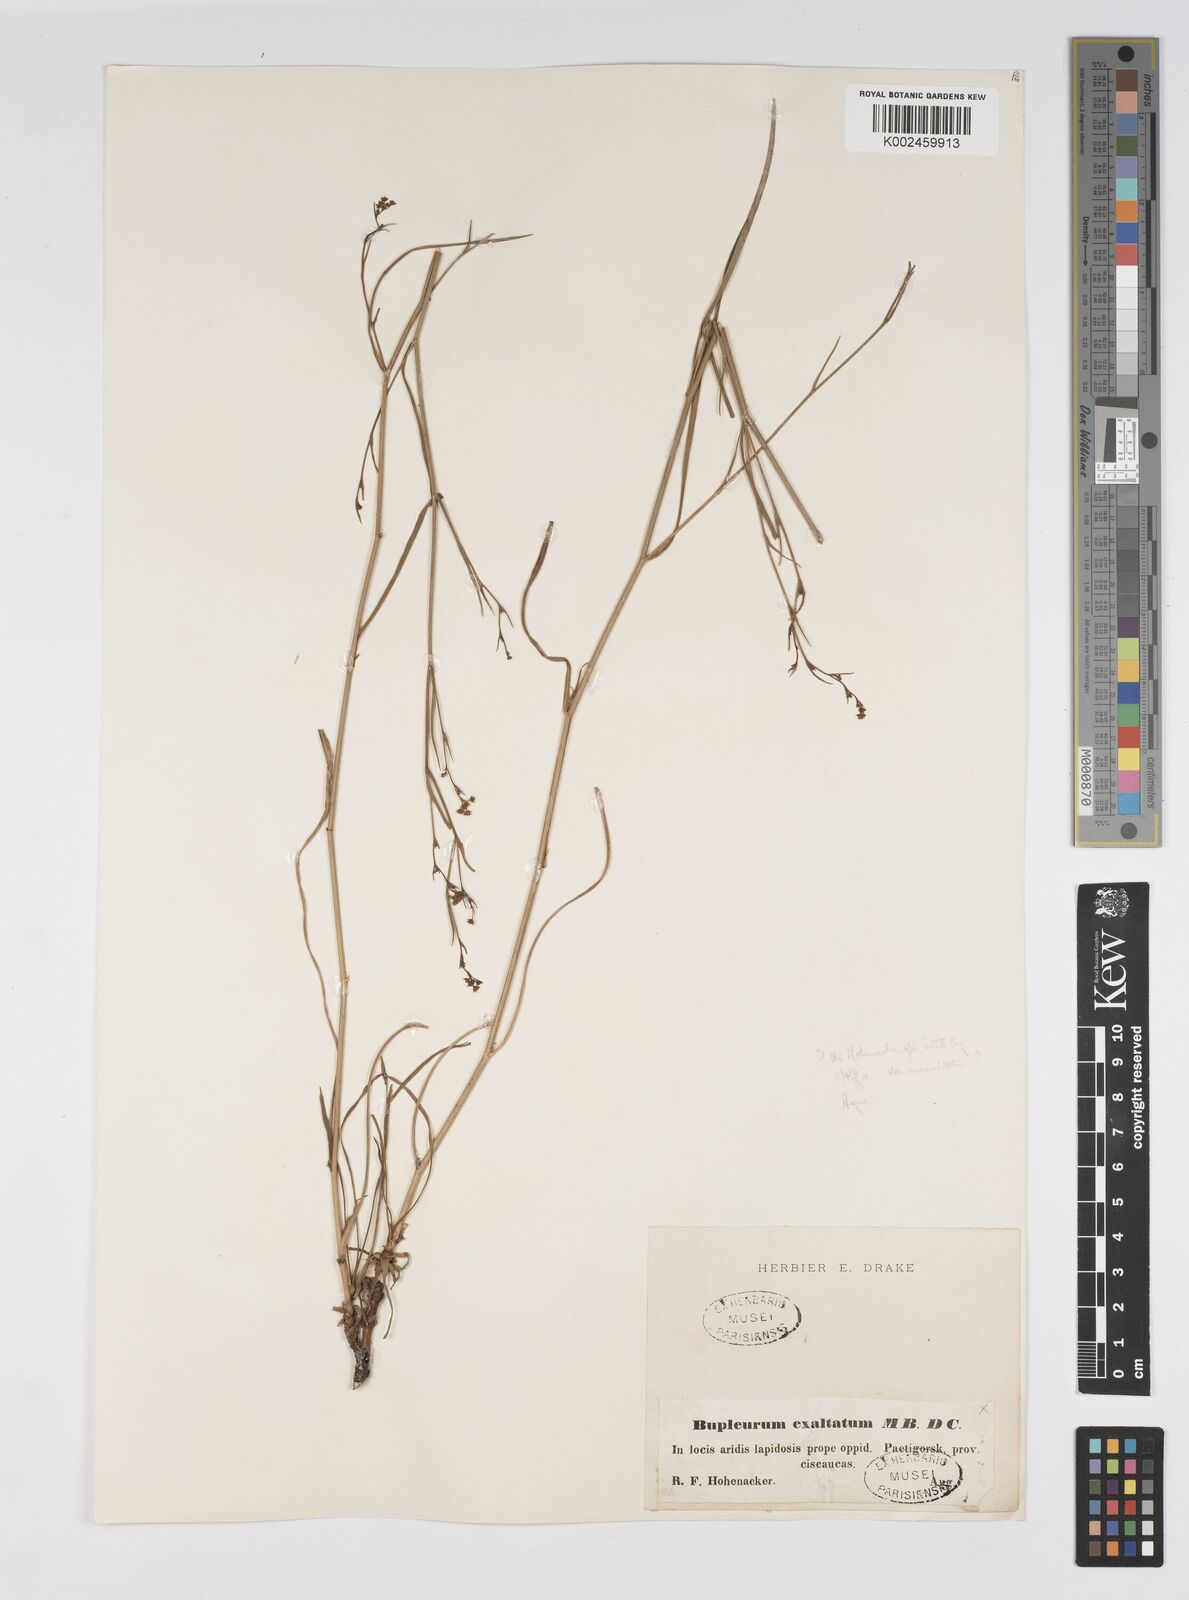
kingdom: Plantae
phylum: Tracheophyta
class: Magnoliopsida
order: Apiales
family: Apiaceae
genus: Bupleurum
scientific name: Bupleurum falcatum
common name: Sickle-leaved hare's-ear
